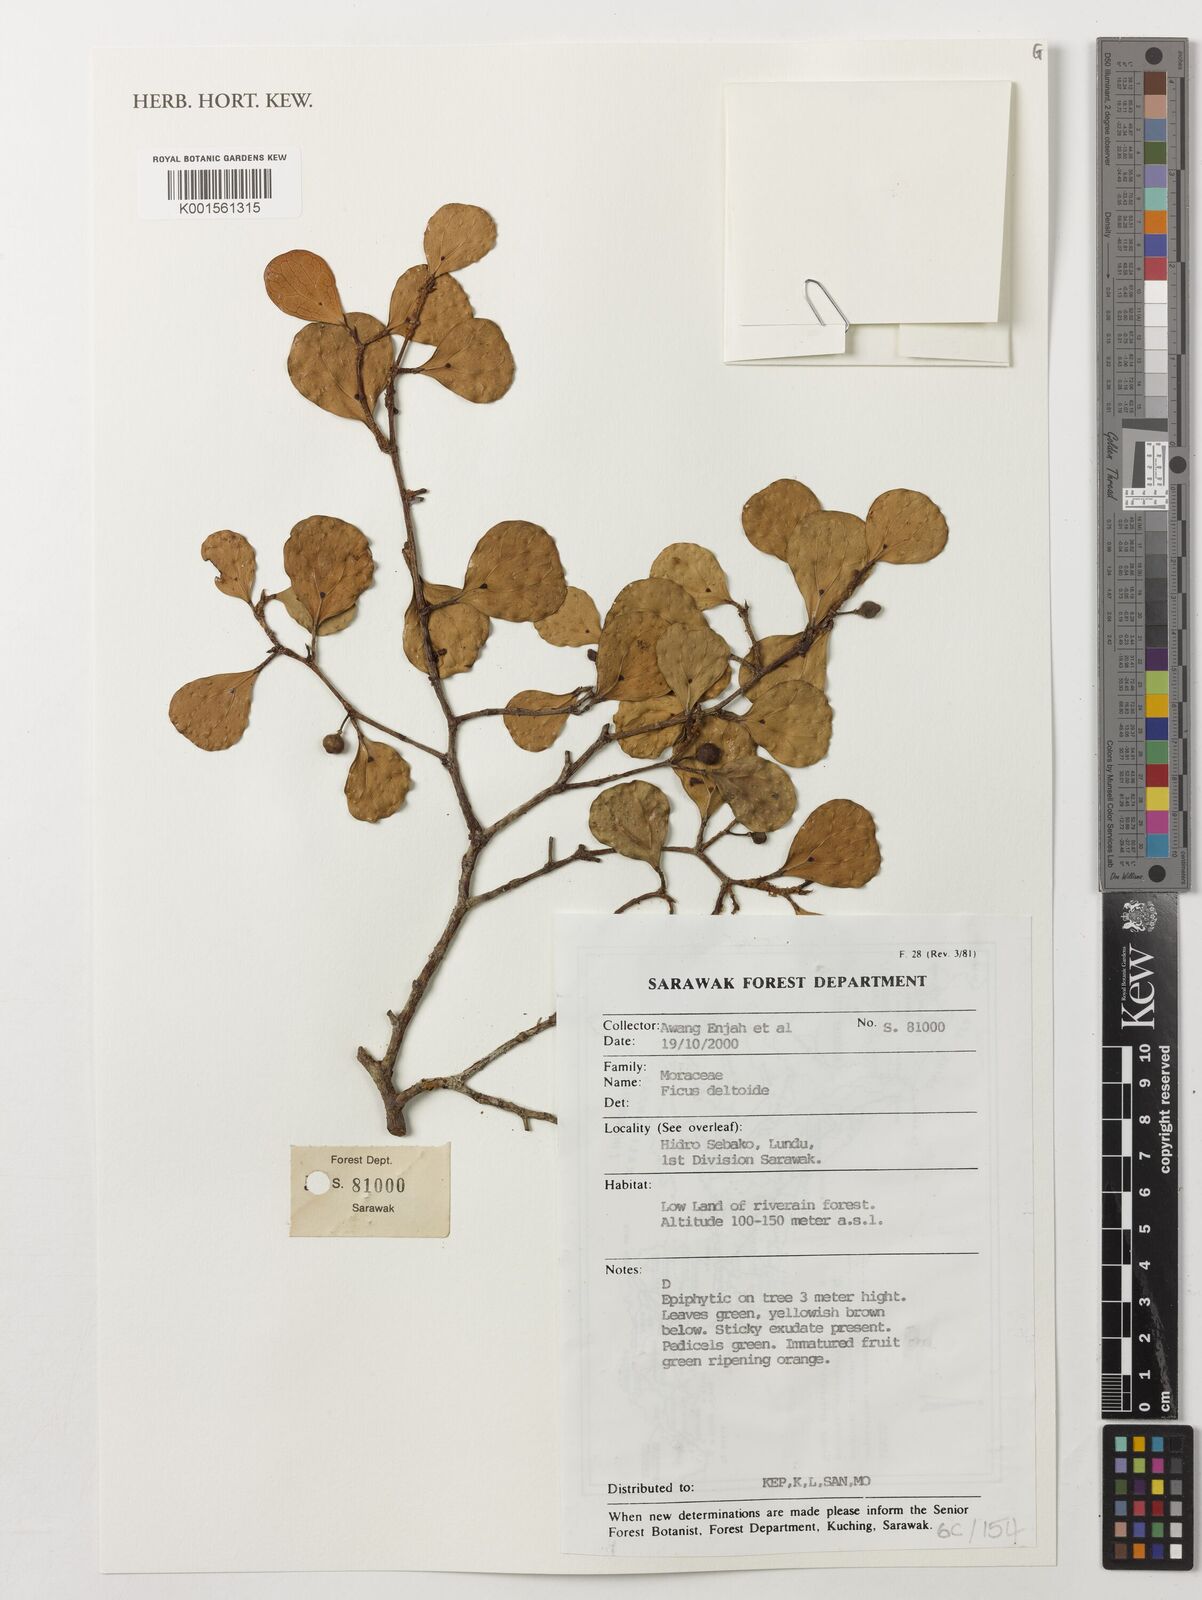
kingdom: Plantae
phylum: Tracheophyta
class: Magnoliopsida
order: Rosales
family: Moraceae
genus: Ficus
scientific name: Ficus deltoidea
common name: Mistletoe fig
